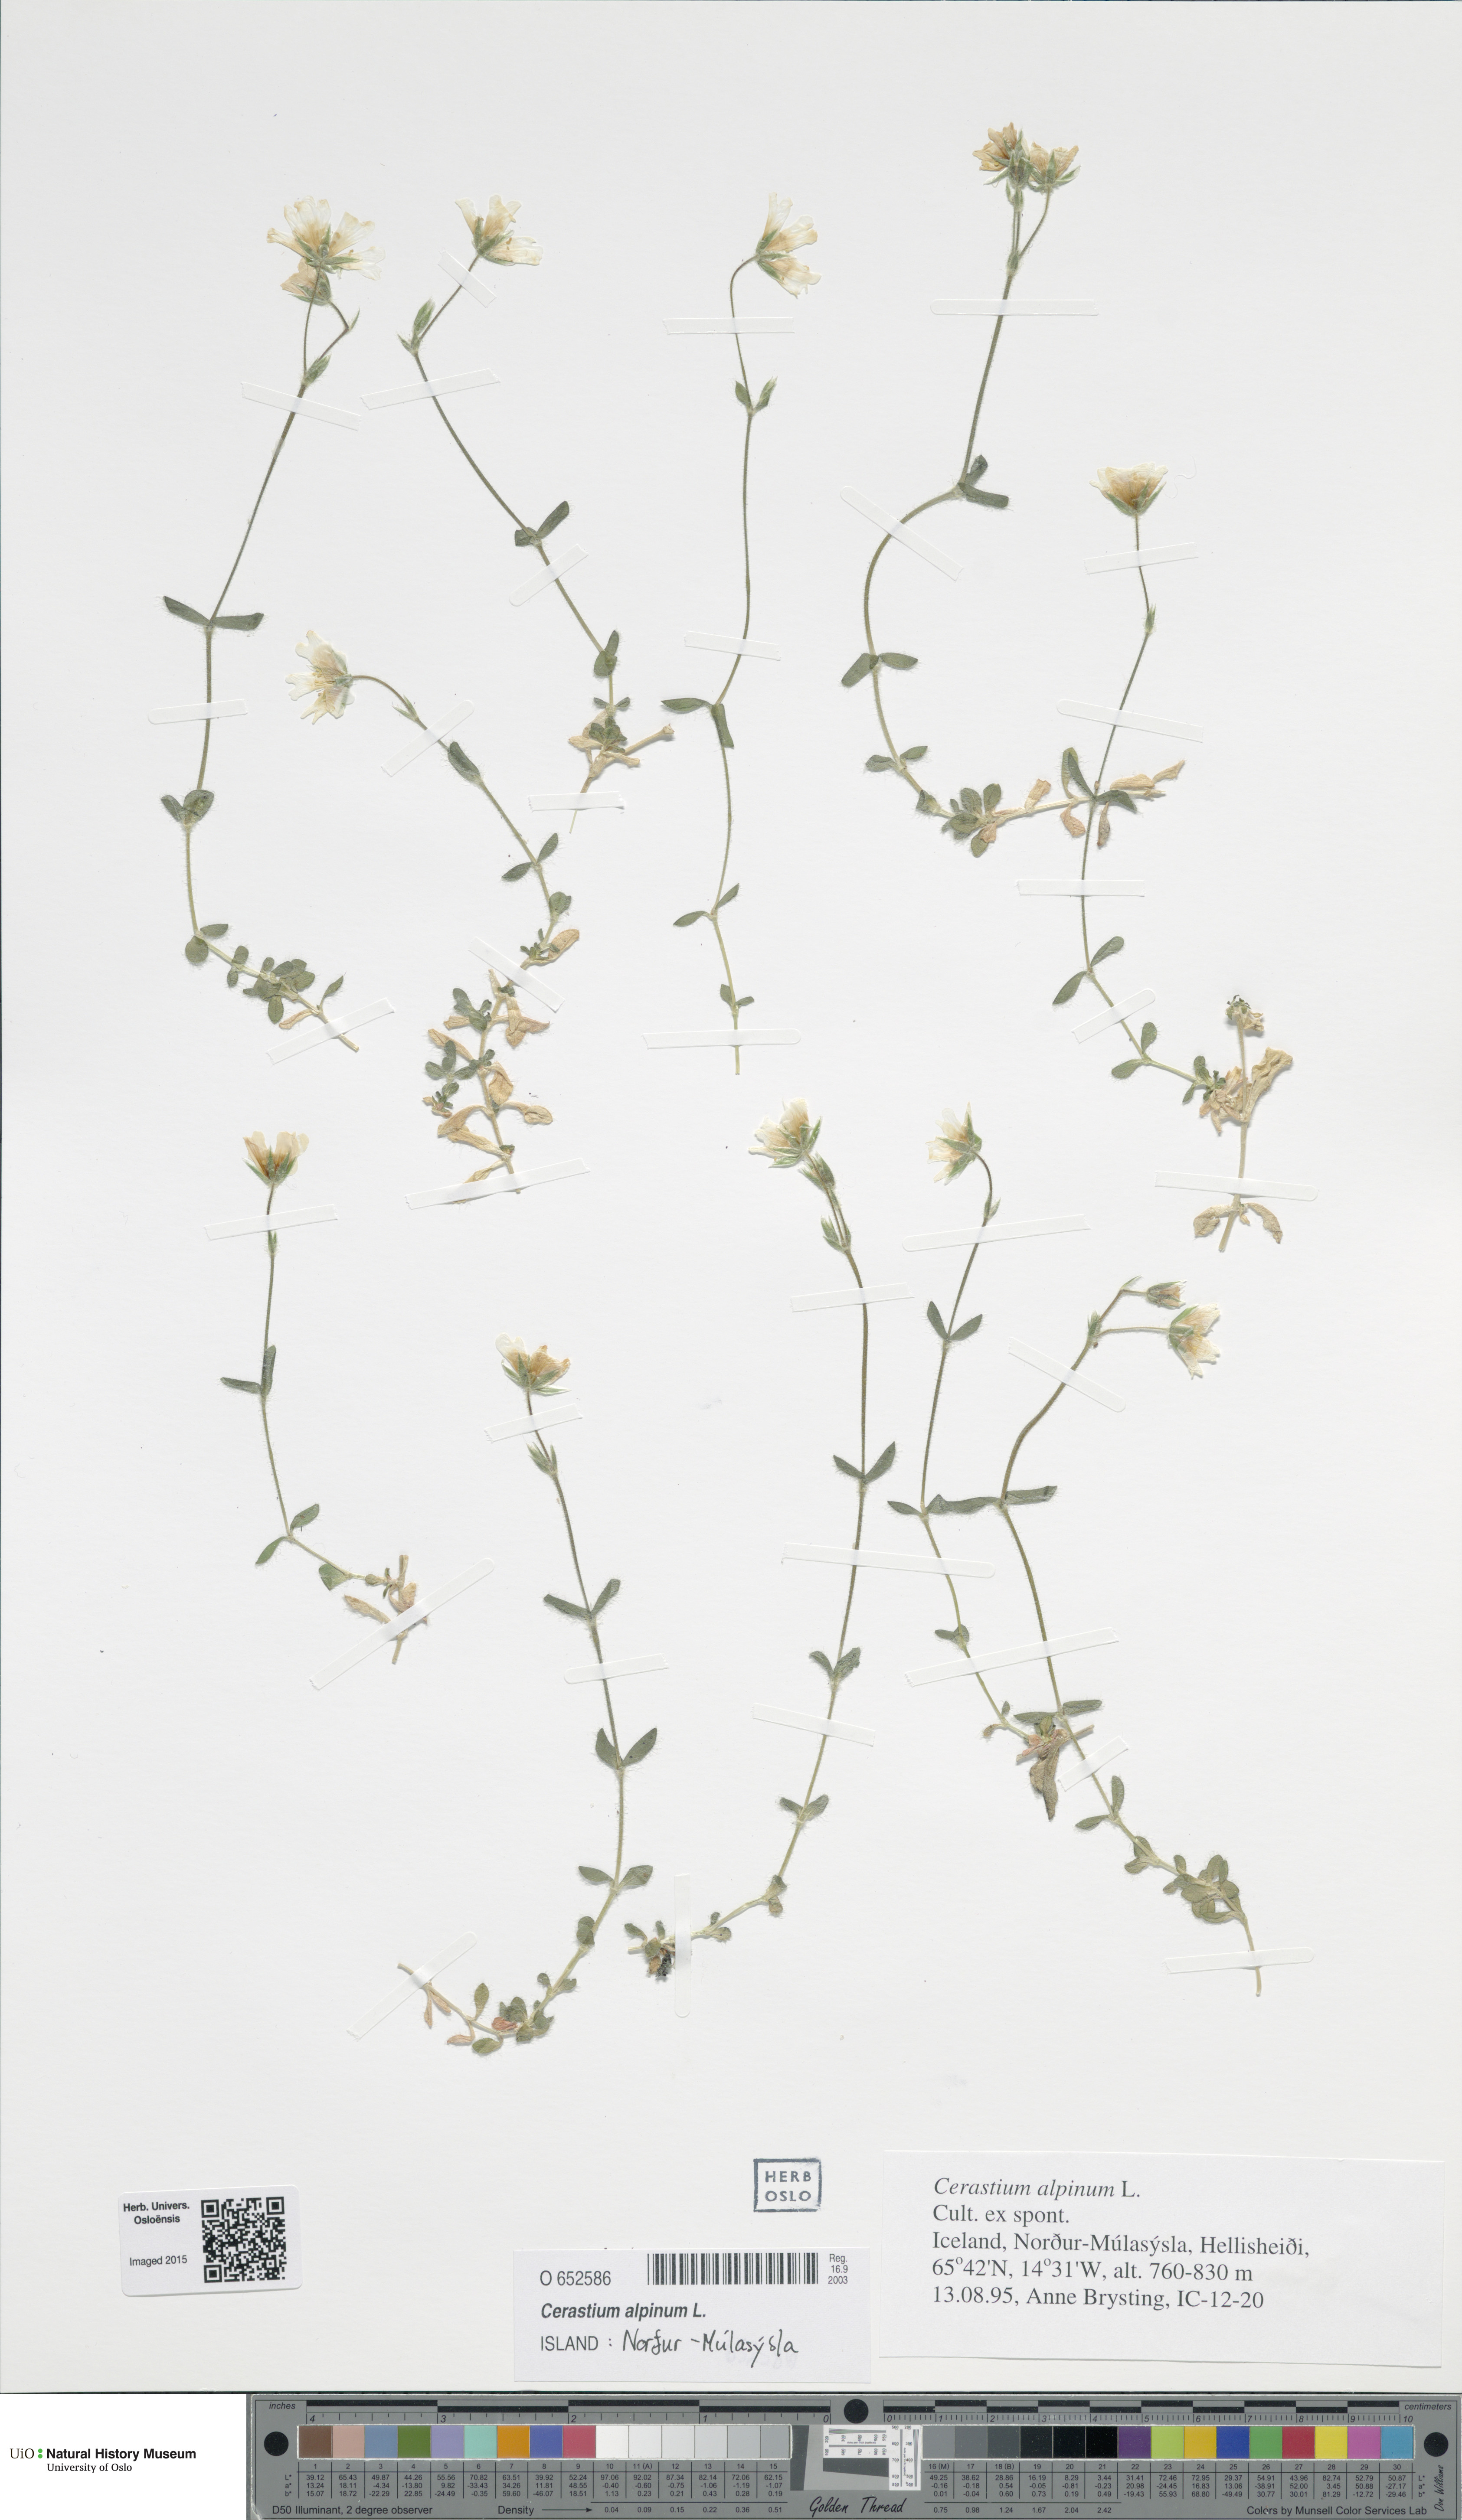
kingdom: Plantae
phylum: Tracheophyta
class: Magnoliopsida
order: Caryophyllales
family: Caryophyllaceae
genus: Cerastium
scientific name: Cerastium alpinum
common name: Alpine mouse-ear
